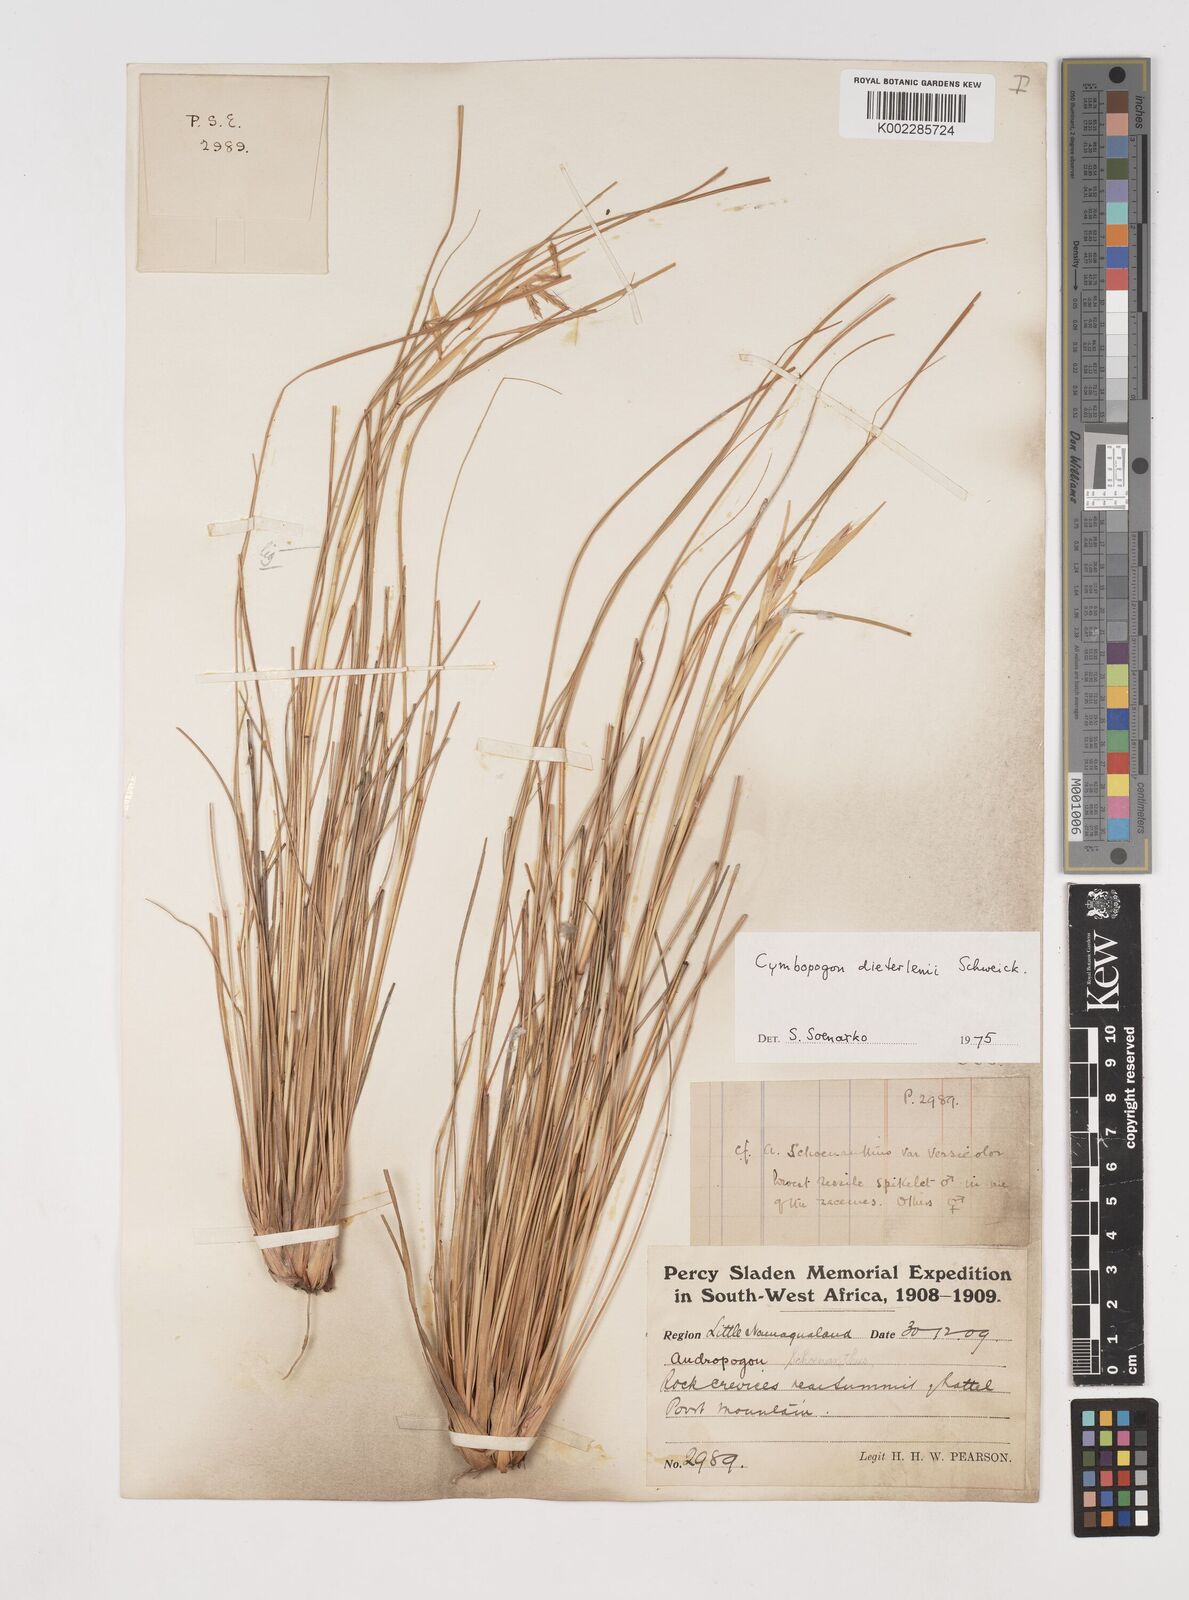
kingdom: Plantae
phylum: Tracheophyta
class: Liliopsida
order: Poales
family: Poaceae
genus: Cymbopogon
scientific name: Cymbopogon dieterlenii
